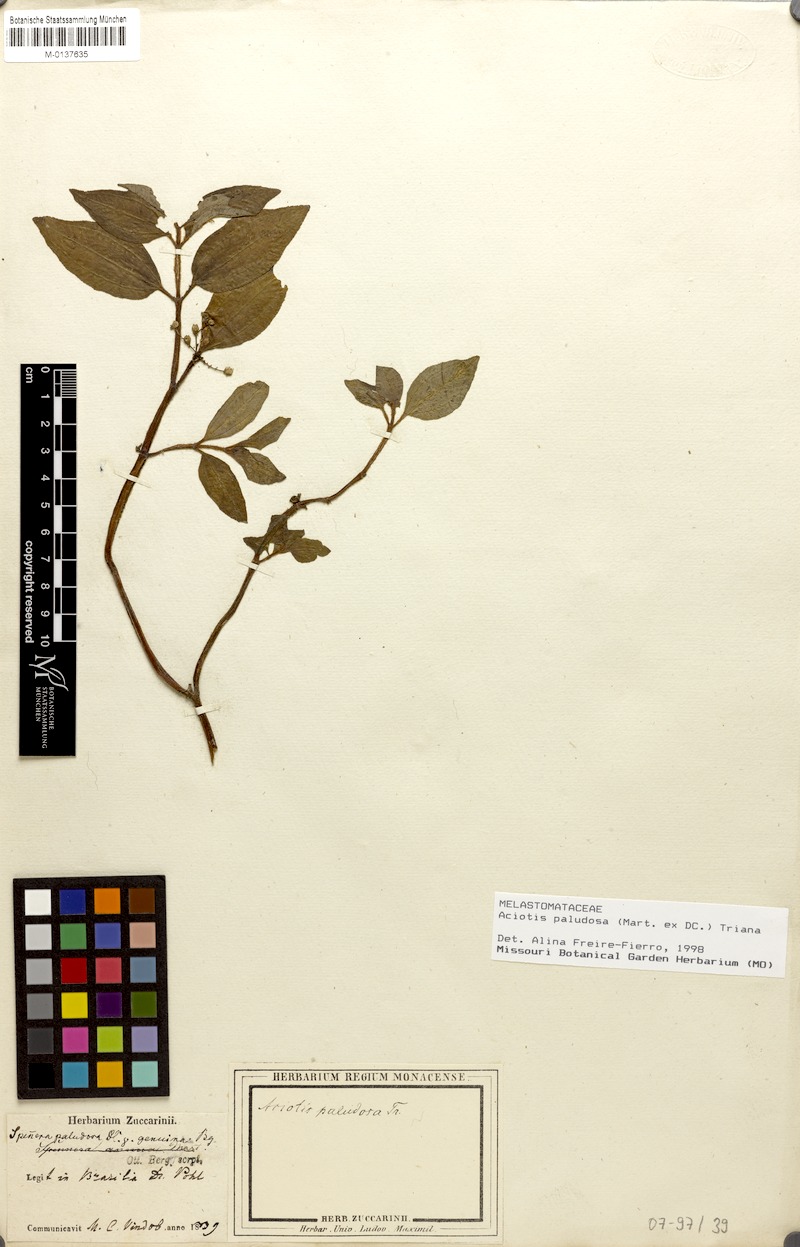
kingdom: Plantae
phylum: Tracheophyta
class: Magnoliopsida
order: Myrtales
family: Melastomataceae
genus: Aciotis
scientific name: Aciotis paludosa
